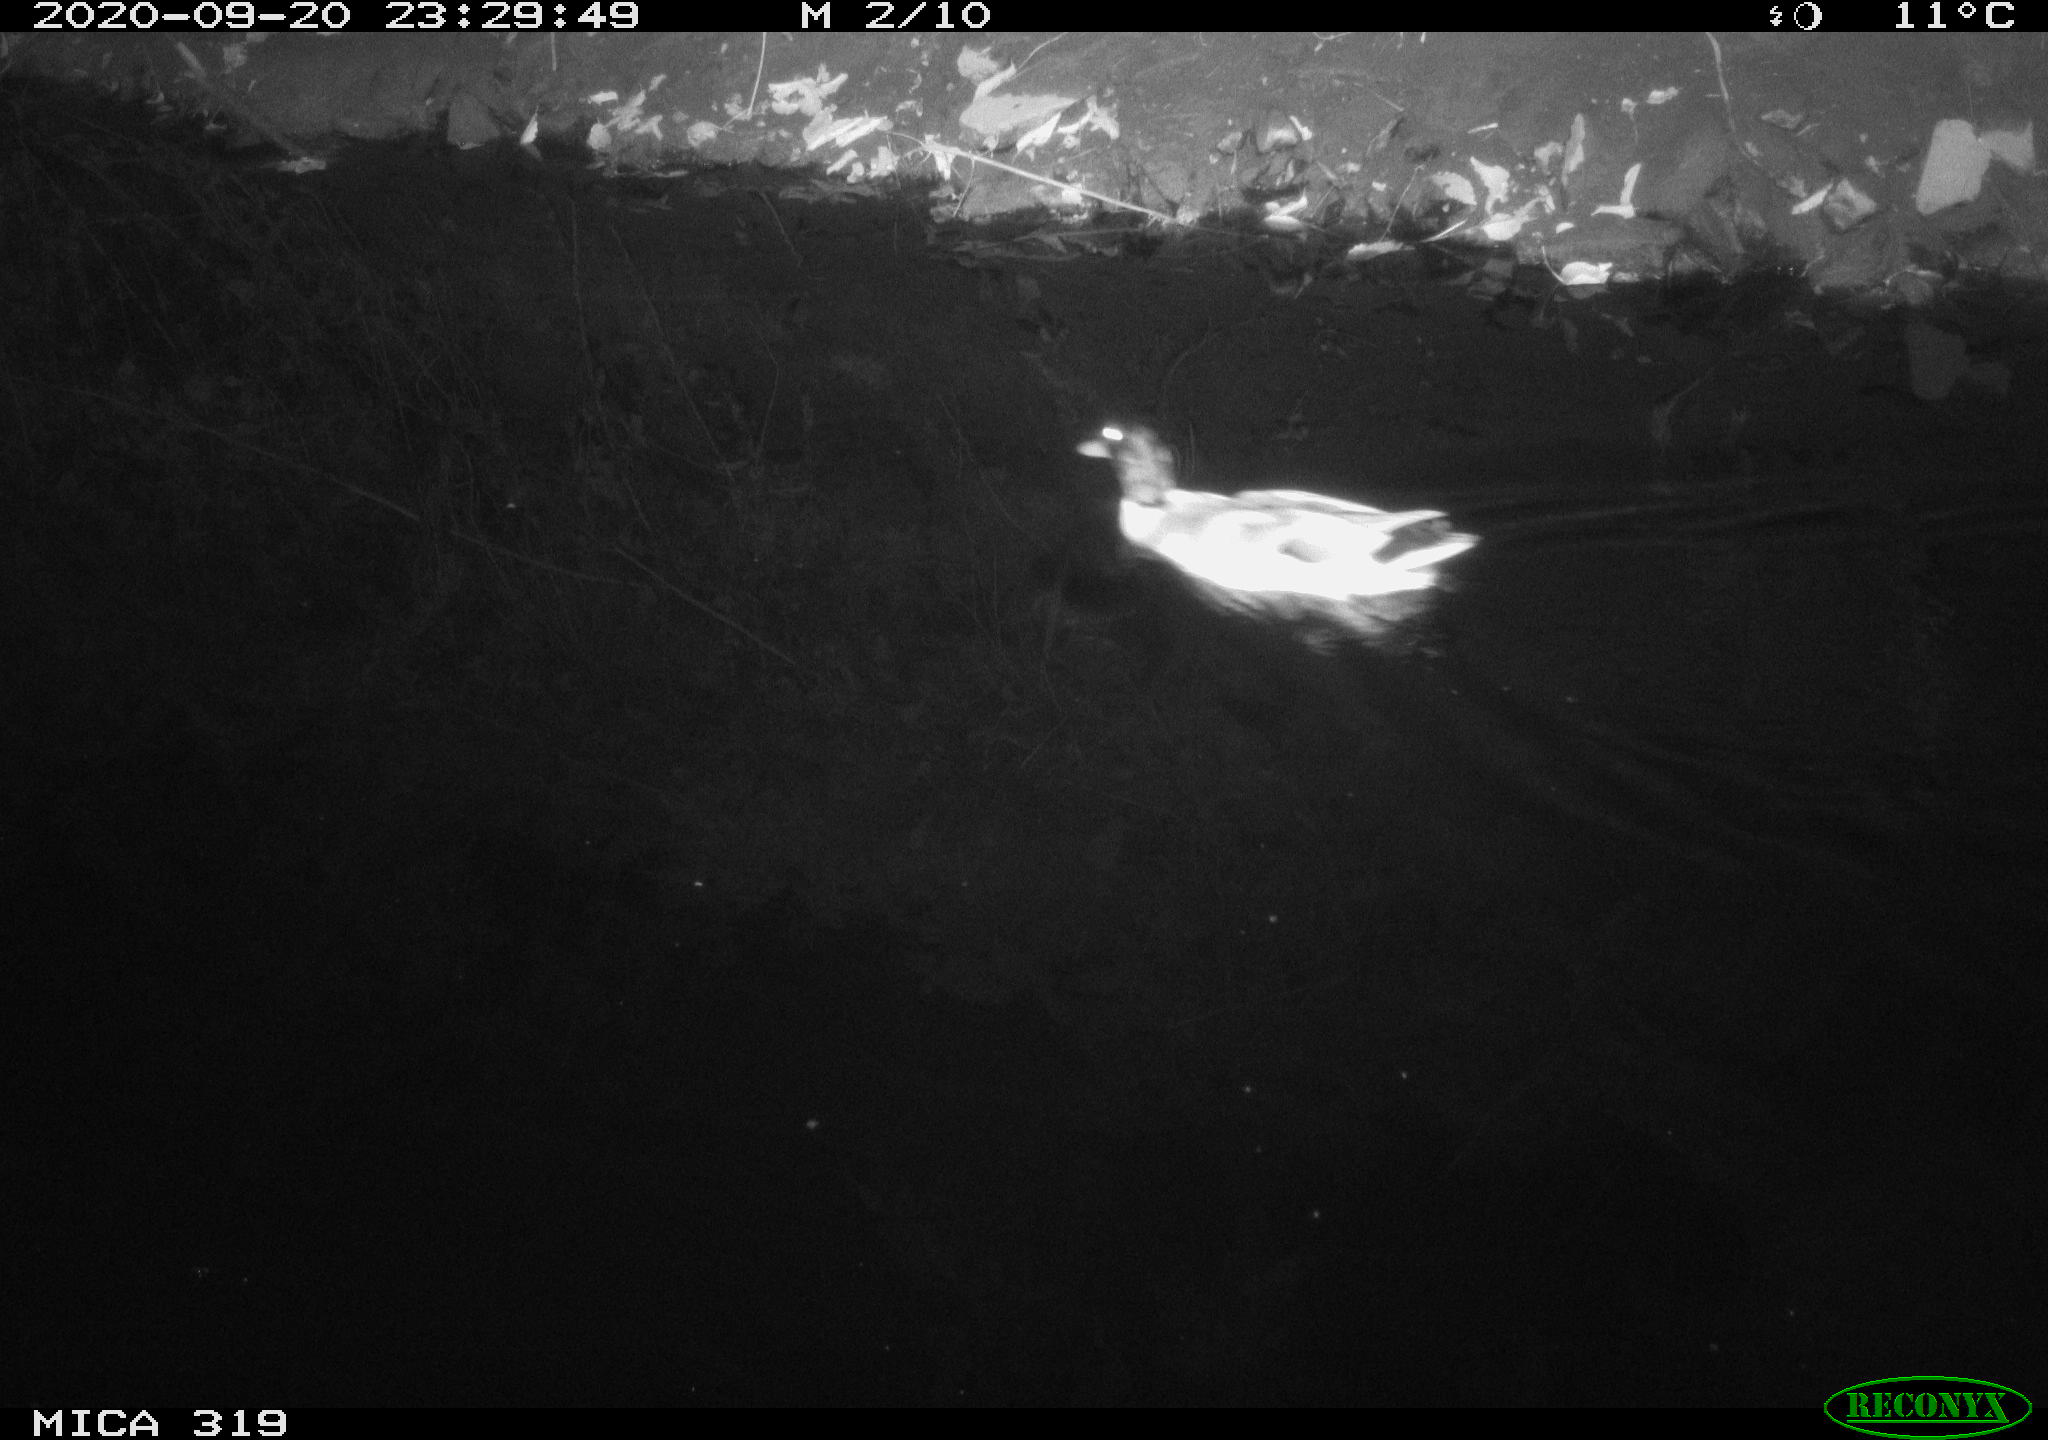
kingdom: Animalia
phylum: Chordata
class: Aves
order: Anseriformes
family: Anatidae
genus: Anas
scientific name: Anas platyrhynchos
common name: Mallard
